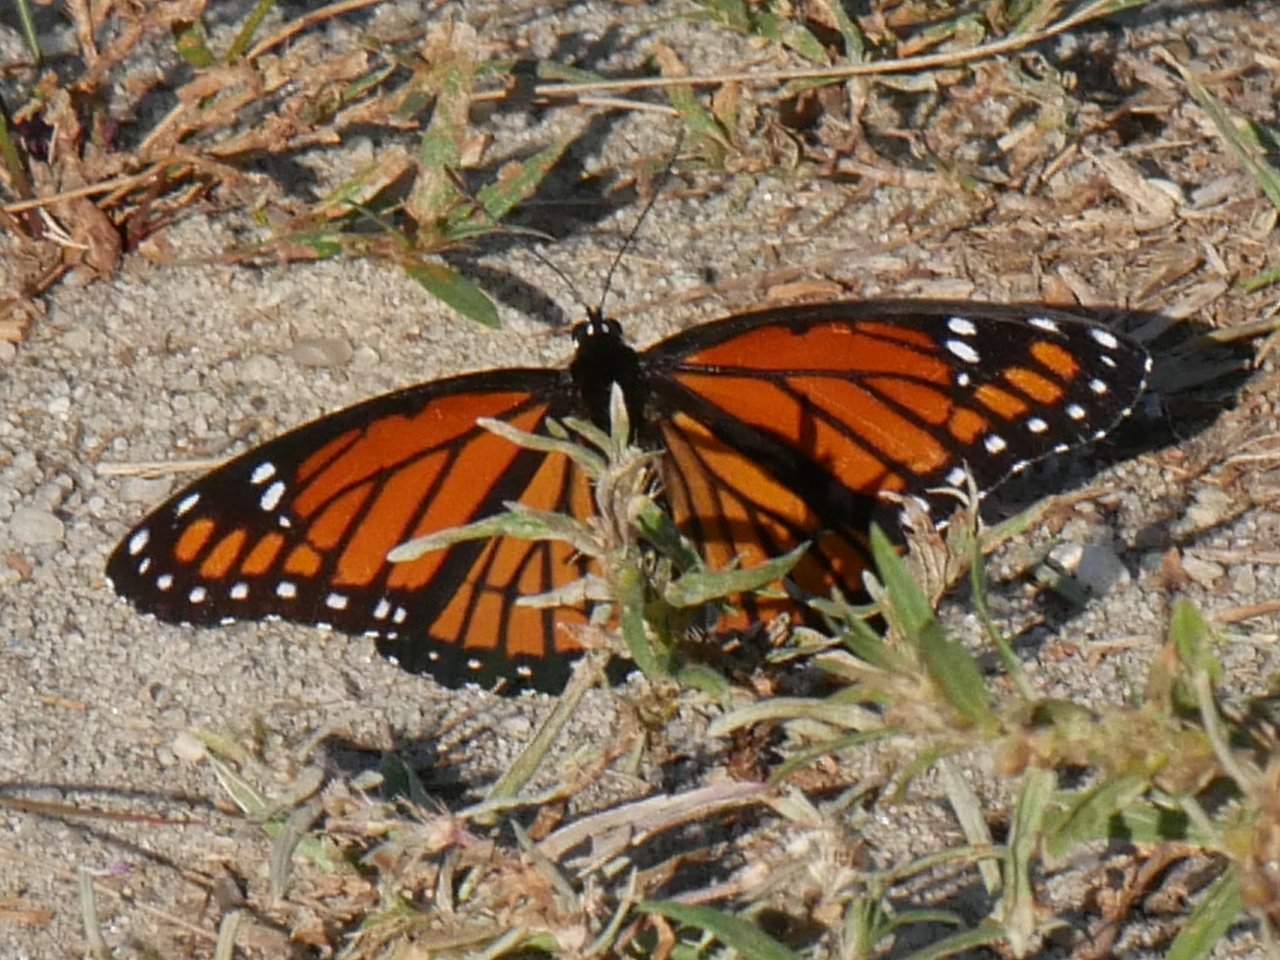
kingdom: Animalia
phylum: Arthropoda
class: Insecta
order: Lepidoptera
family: Nymphalidae
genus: Limenitis
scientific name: Limenitis archippus
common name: Viceroy
